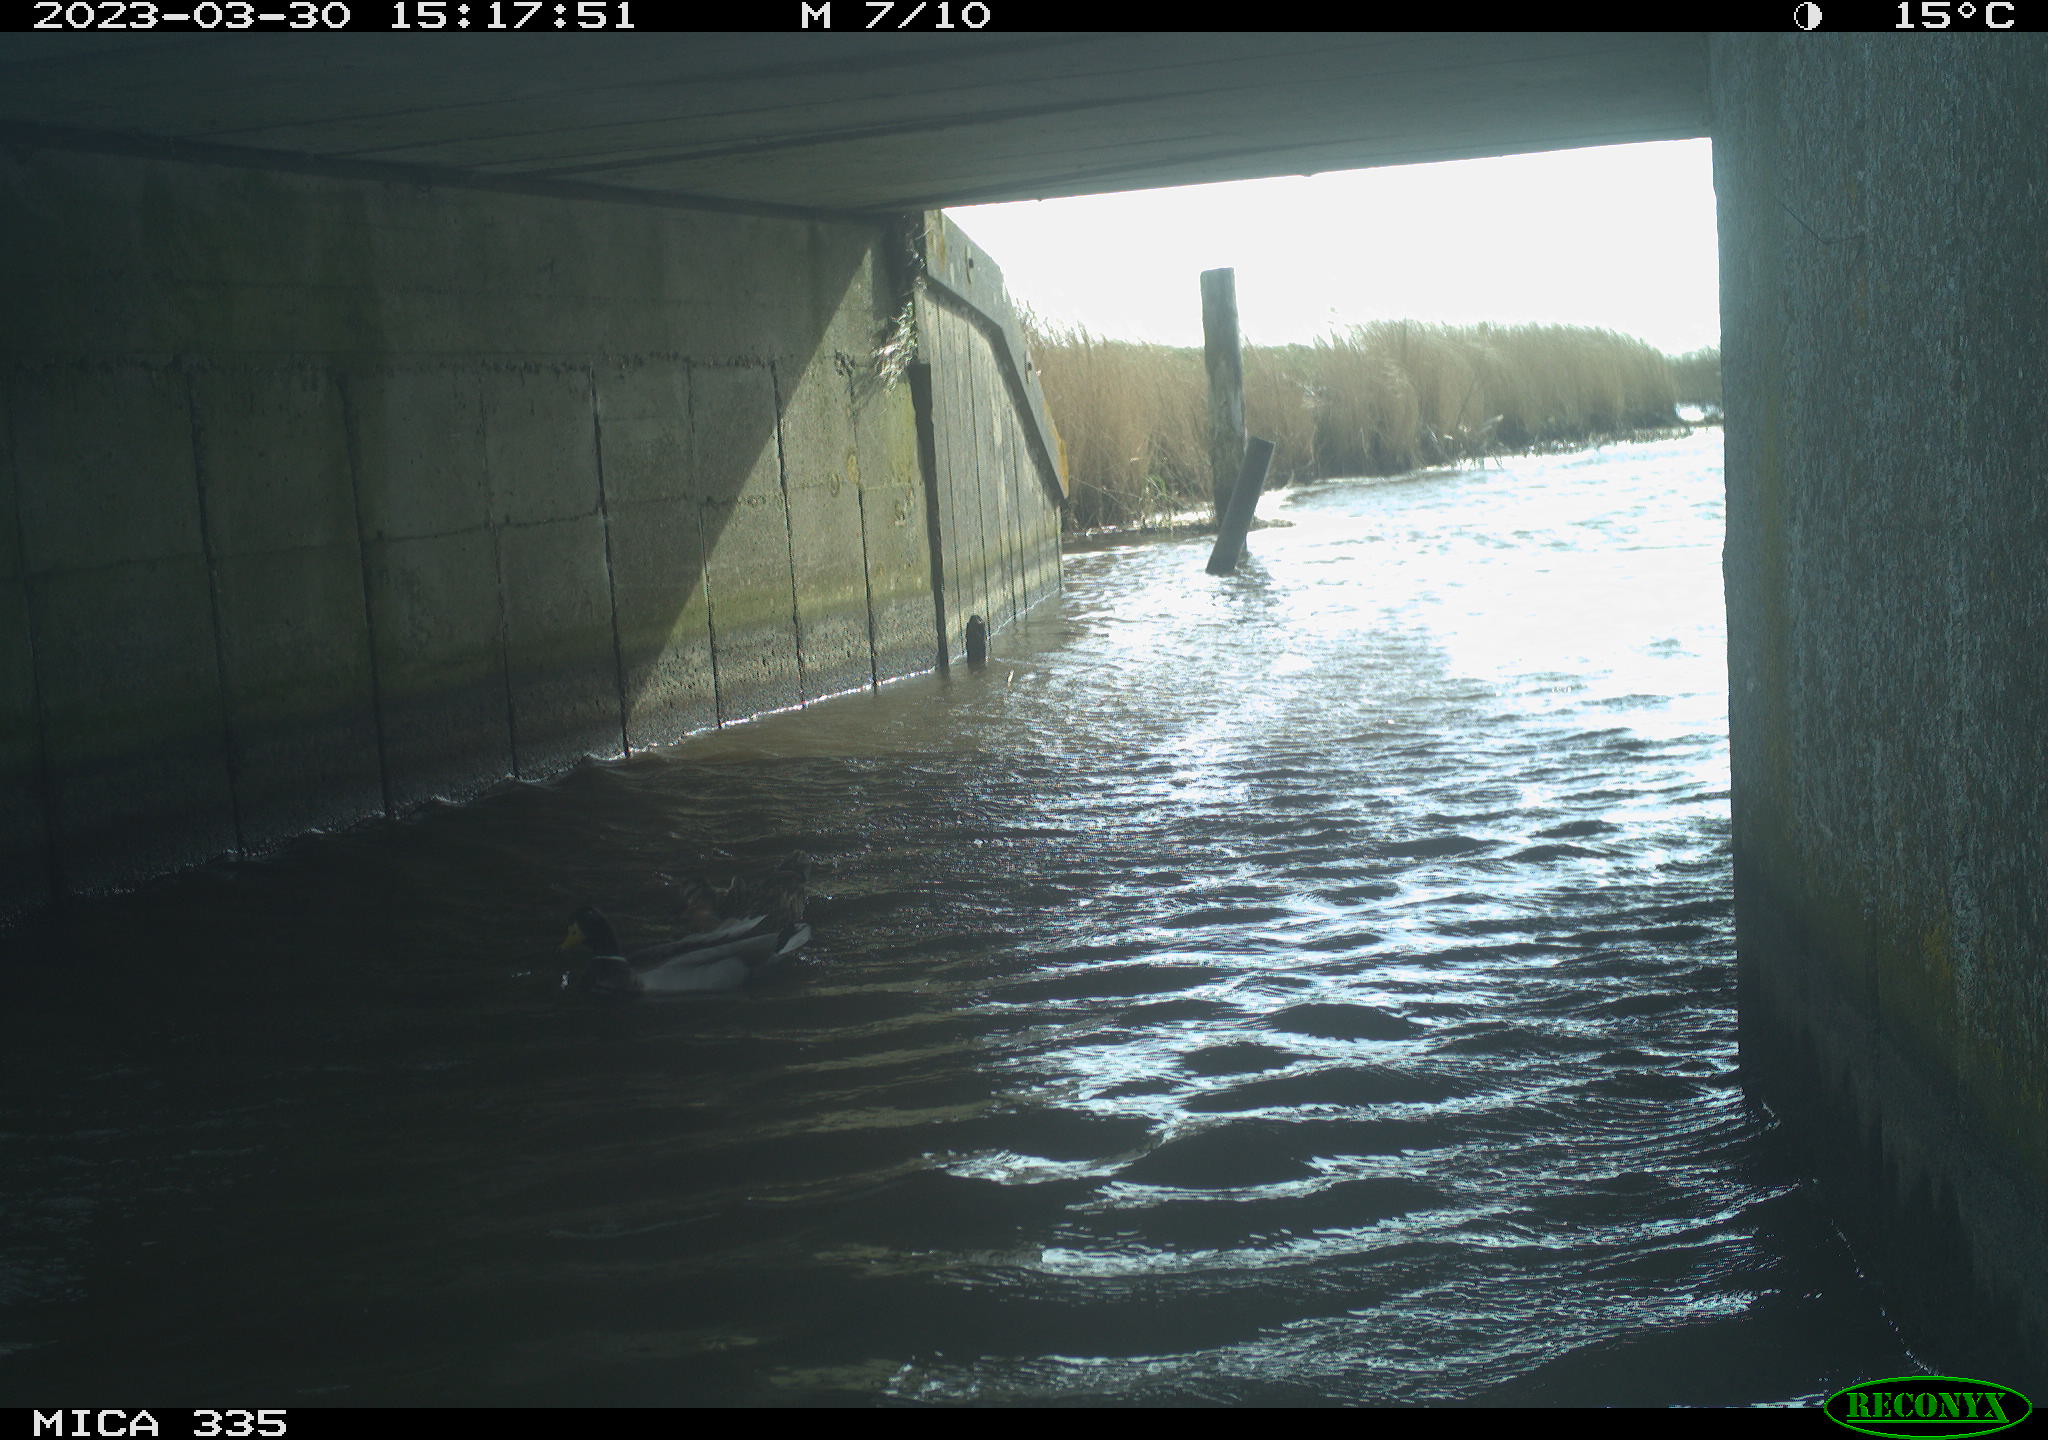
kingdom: Animalia
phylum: Chordata
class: Aves
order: Anseriformes
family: Anatidae
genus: Anas
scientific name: Anas platyrhynchos
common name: Mallard
